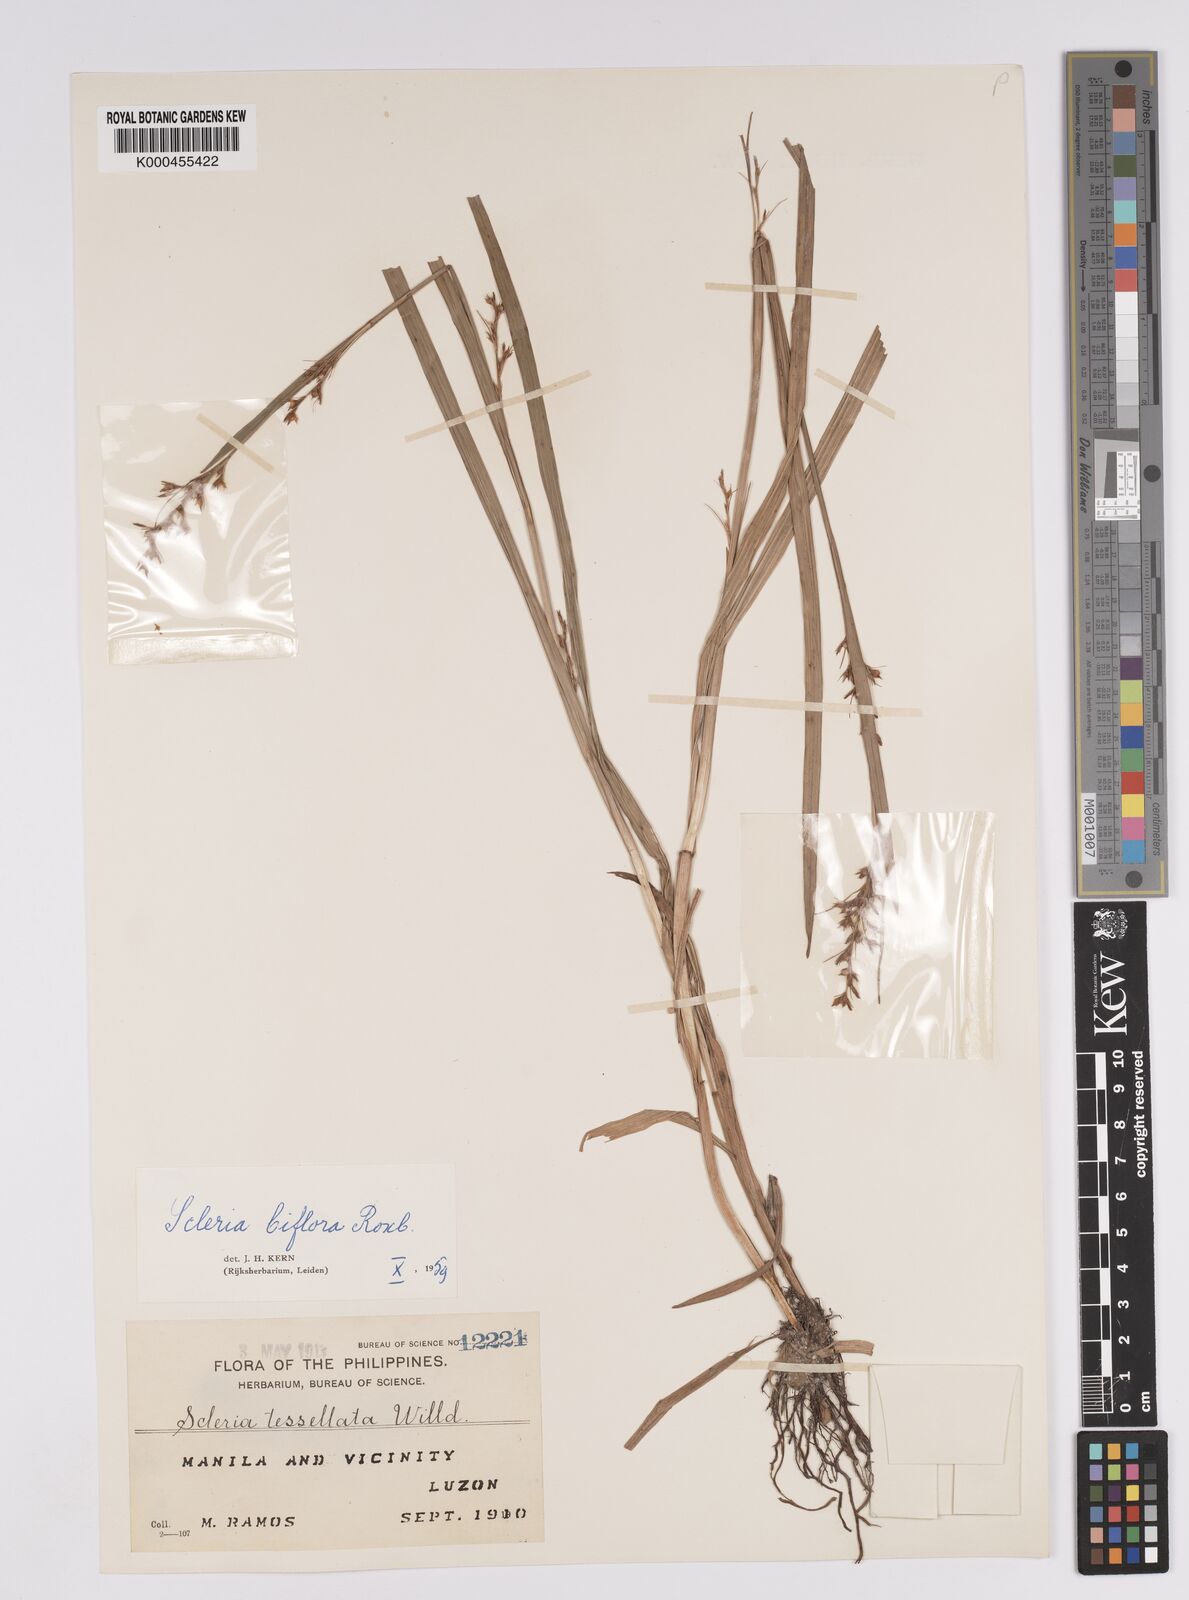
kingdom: Plantae
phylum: Tracheophyta
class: Liliopsida
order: Poales
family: Cyperaceae
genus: Scleria
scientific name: Scleria biflora
